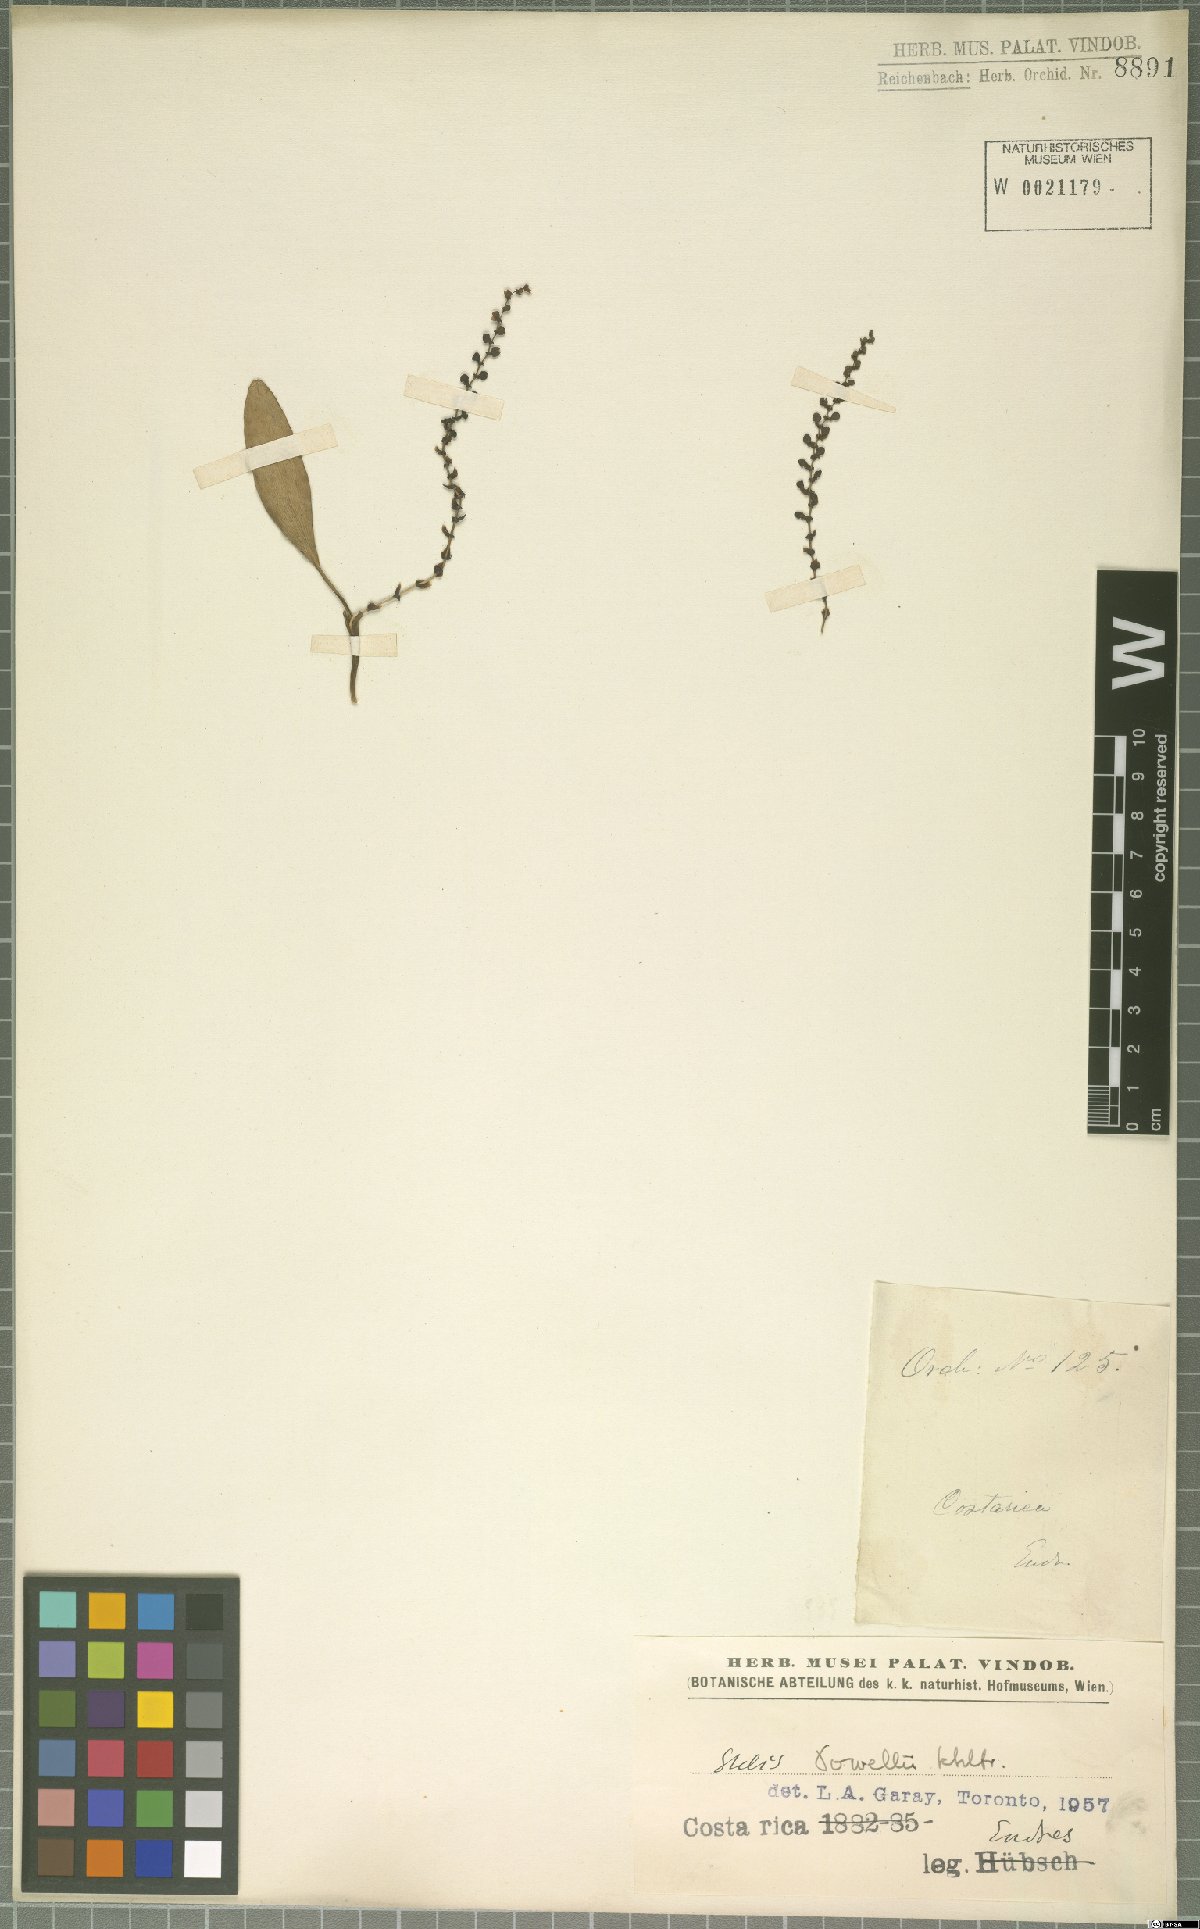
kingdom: Plantae
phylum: Tracheophyta
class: Liliopsida
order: Asparagales
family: Orchidaceae
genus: Stelis
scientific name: Stelis powellii
